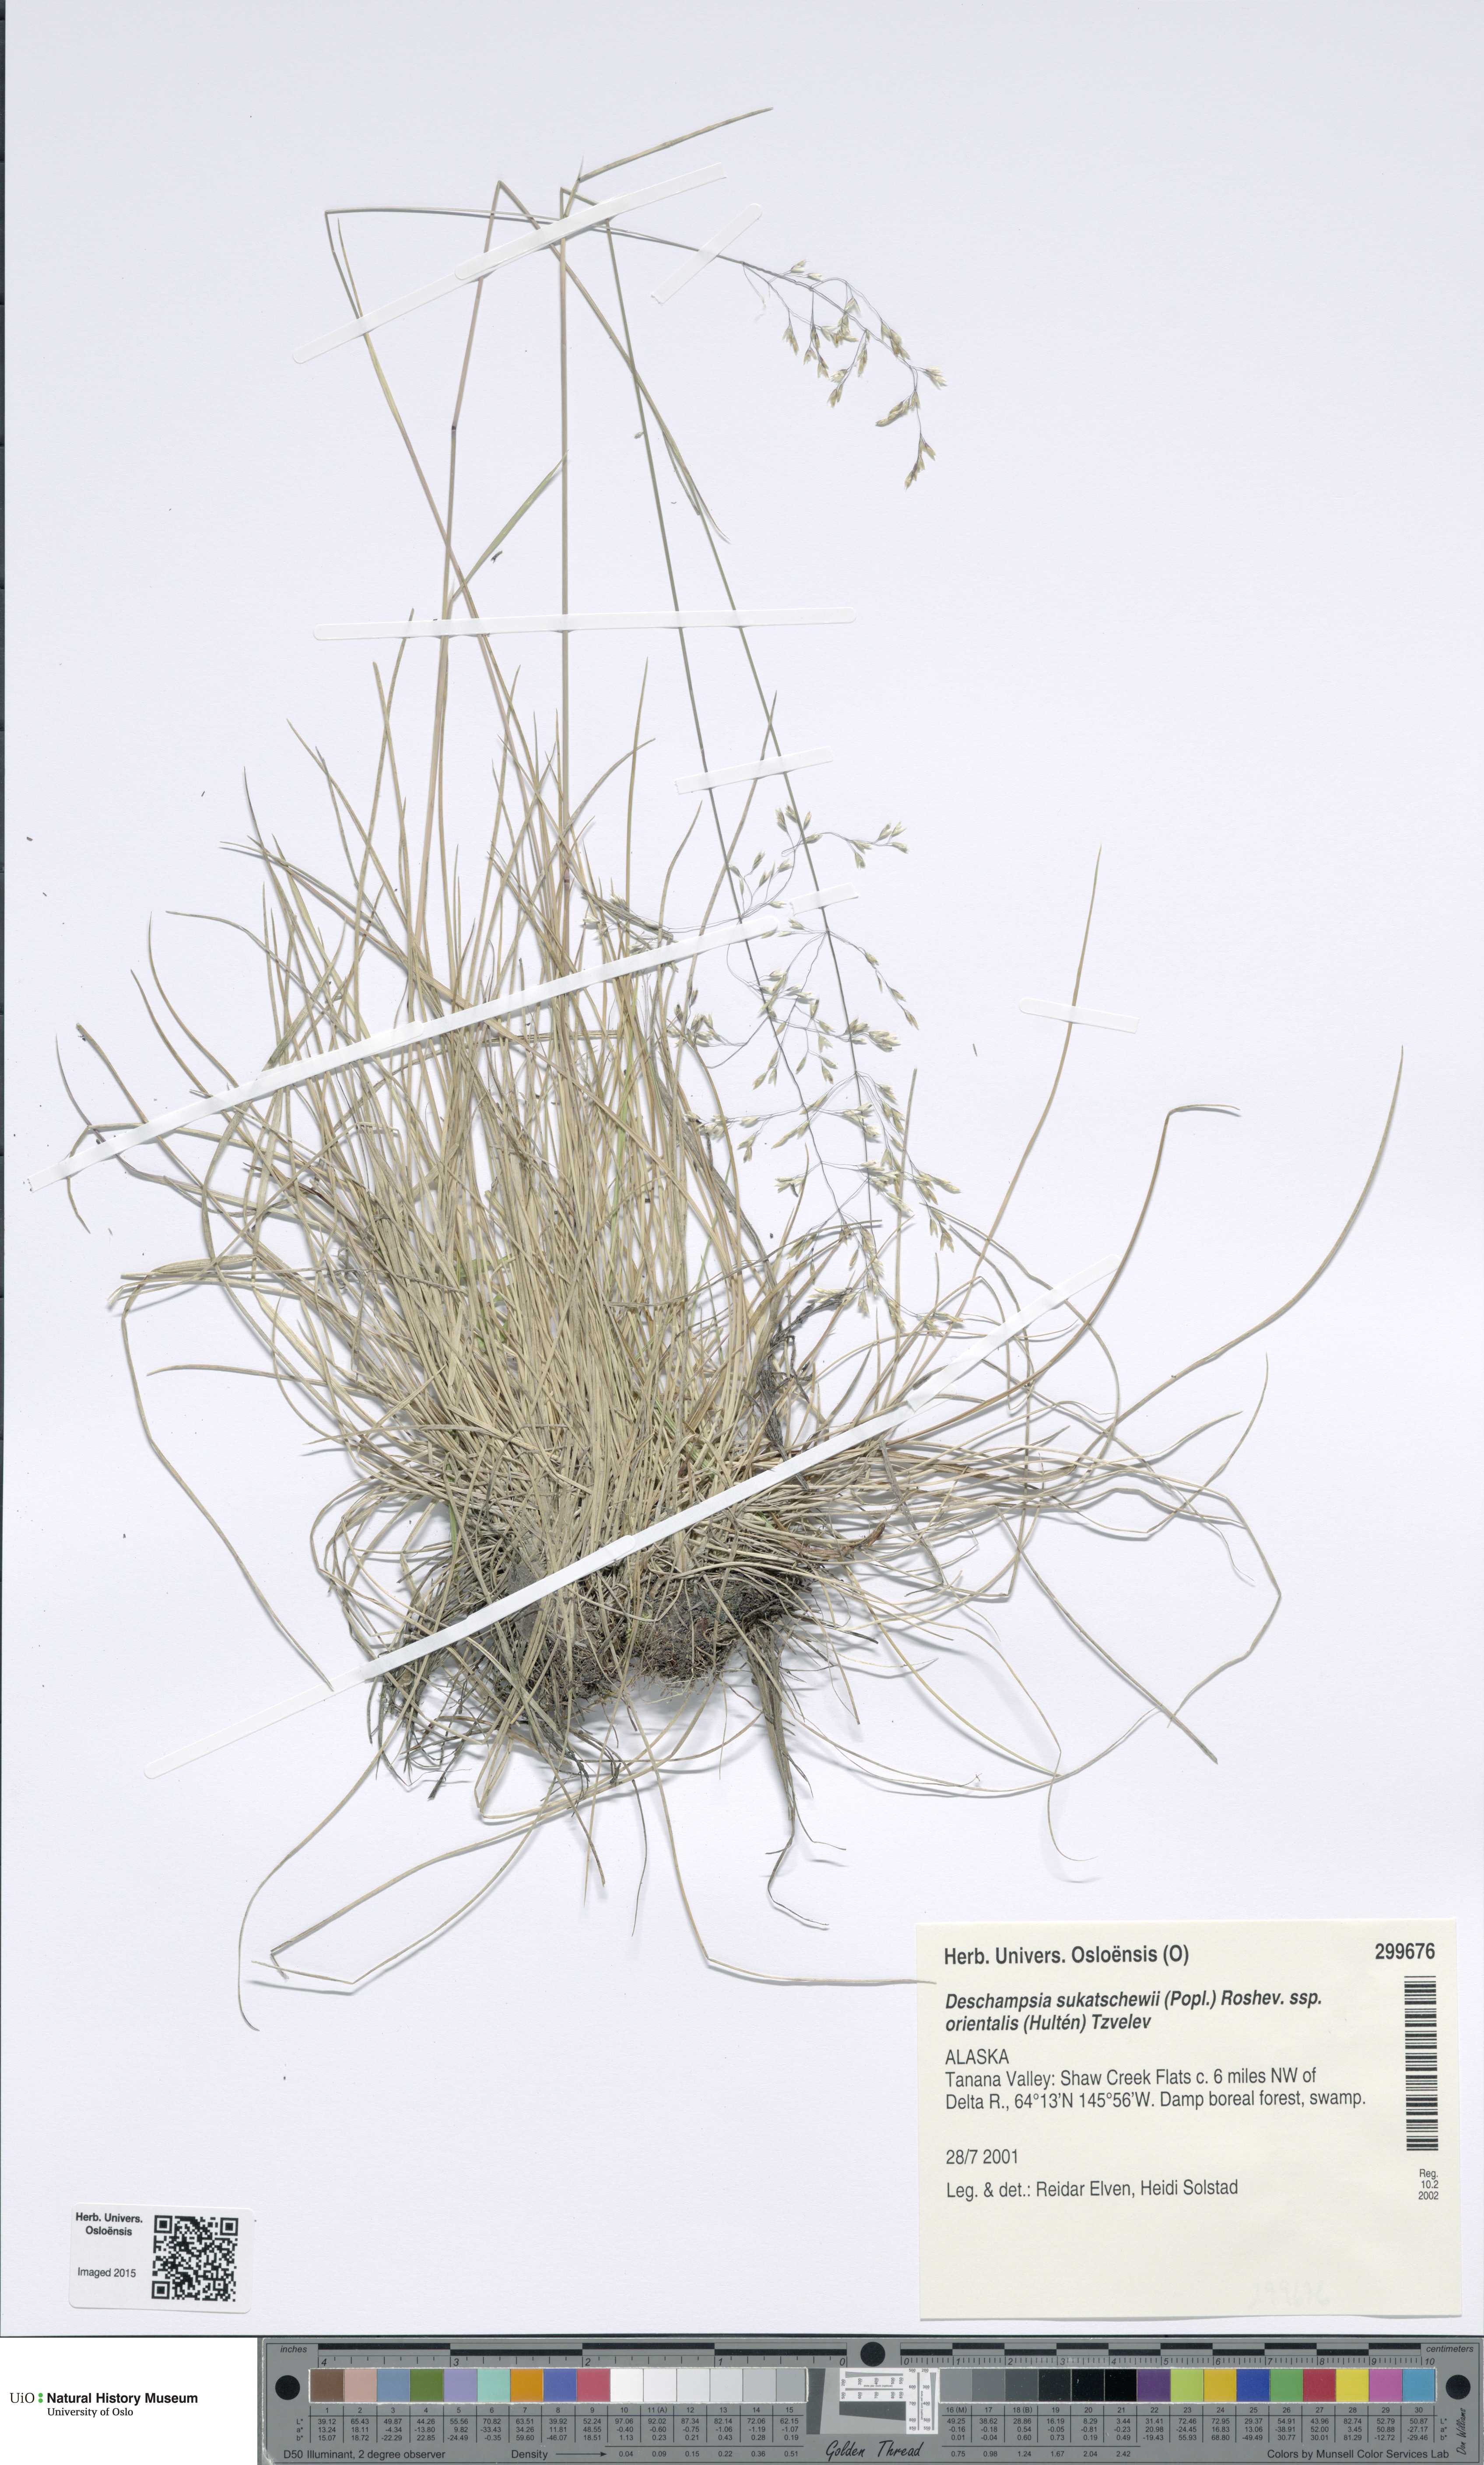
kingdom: Plantae
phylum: Tracheophyta
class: Liliopsida
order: Poales
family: Poaceae
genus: Deschampsia
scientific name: Deschampsia cespitosa
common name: Tufted hair-grass
